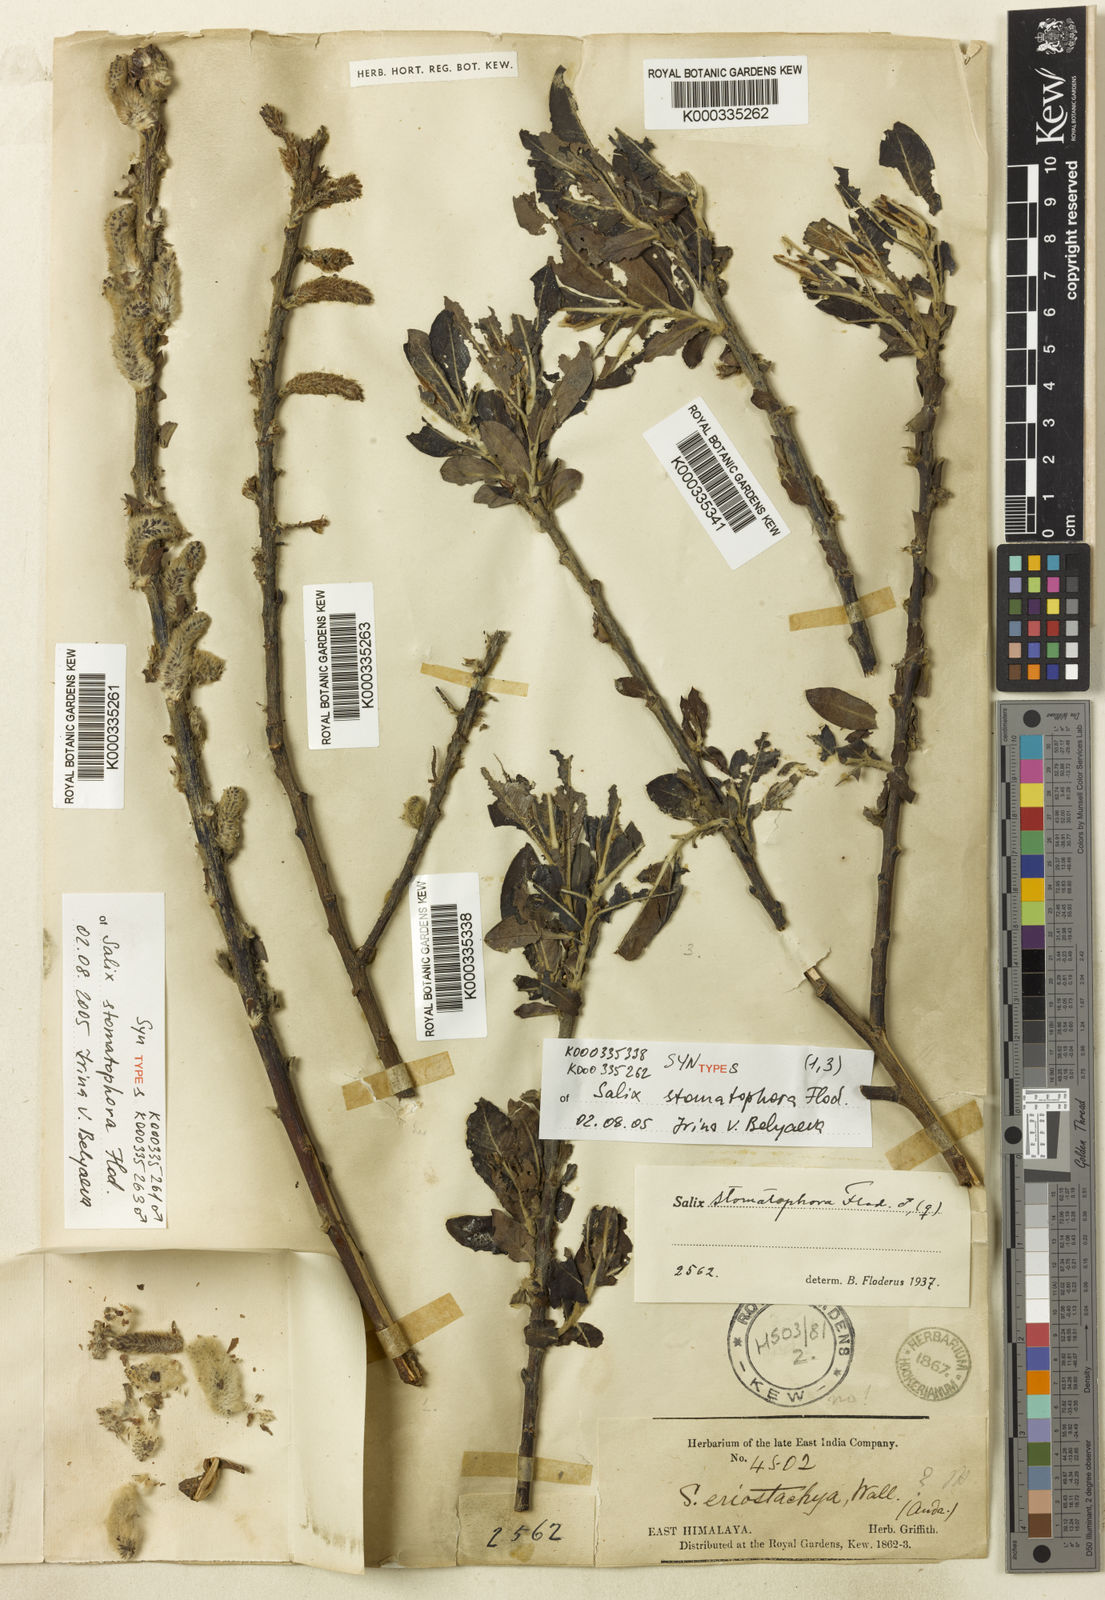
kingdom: Plantae
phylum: Tracheophyta
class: Magnoliopsida
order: Malpighiales
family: Salicaceae
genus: Salix
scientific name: Salix stomatophora
